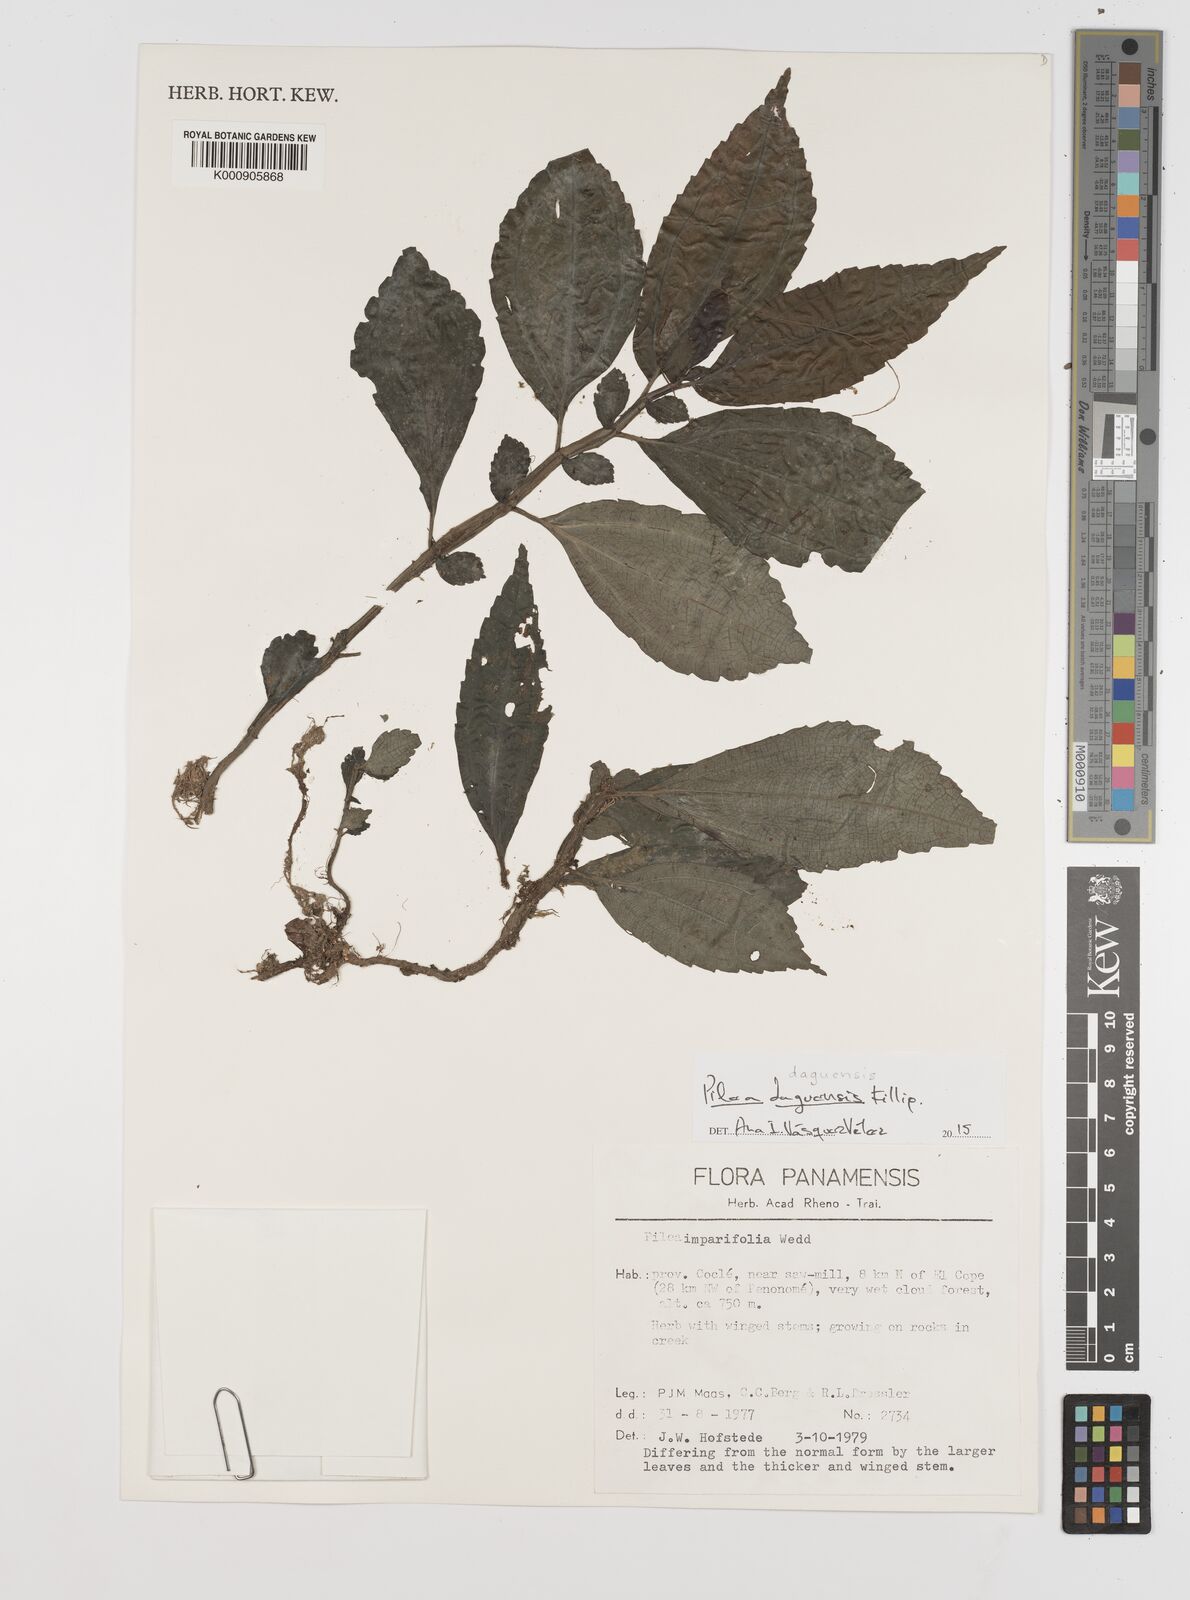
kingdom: Plantae
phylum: Tracheophyta
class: Magnoliopsida
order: Rosales
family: Urticaceae
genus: Pilea
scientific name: Pilea daguensis
